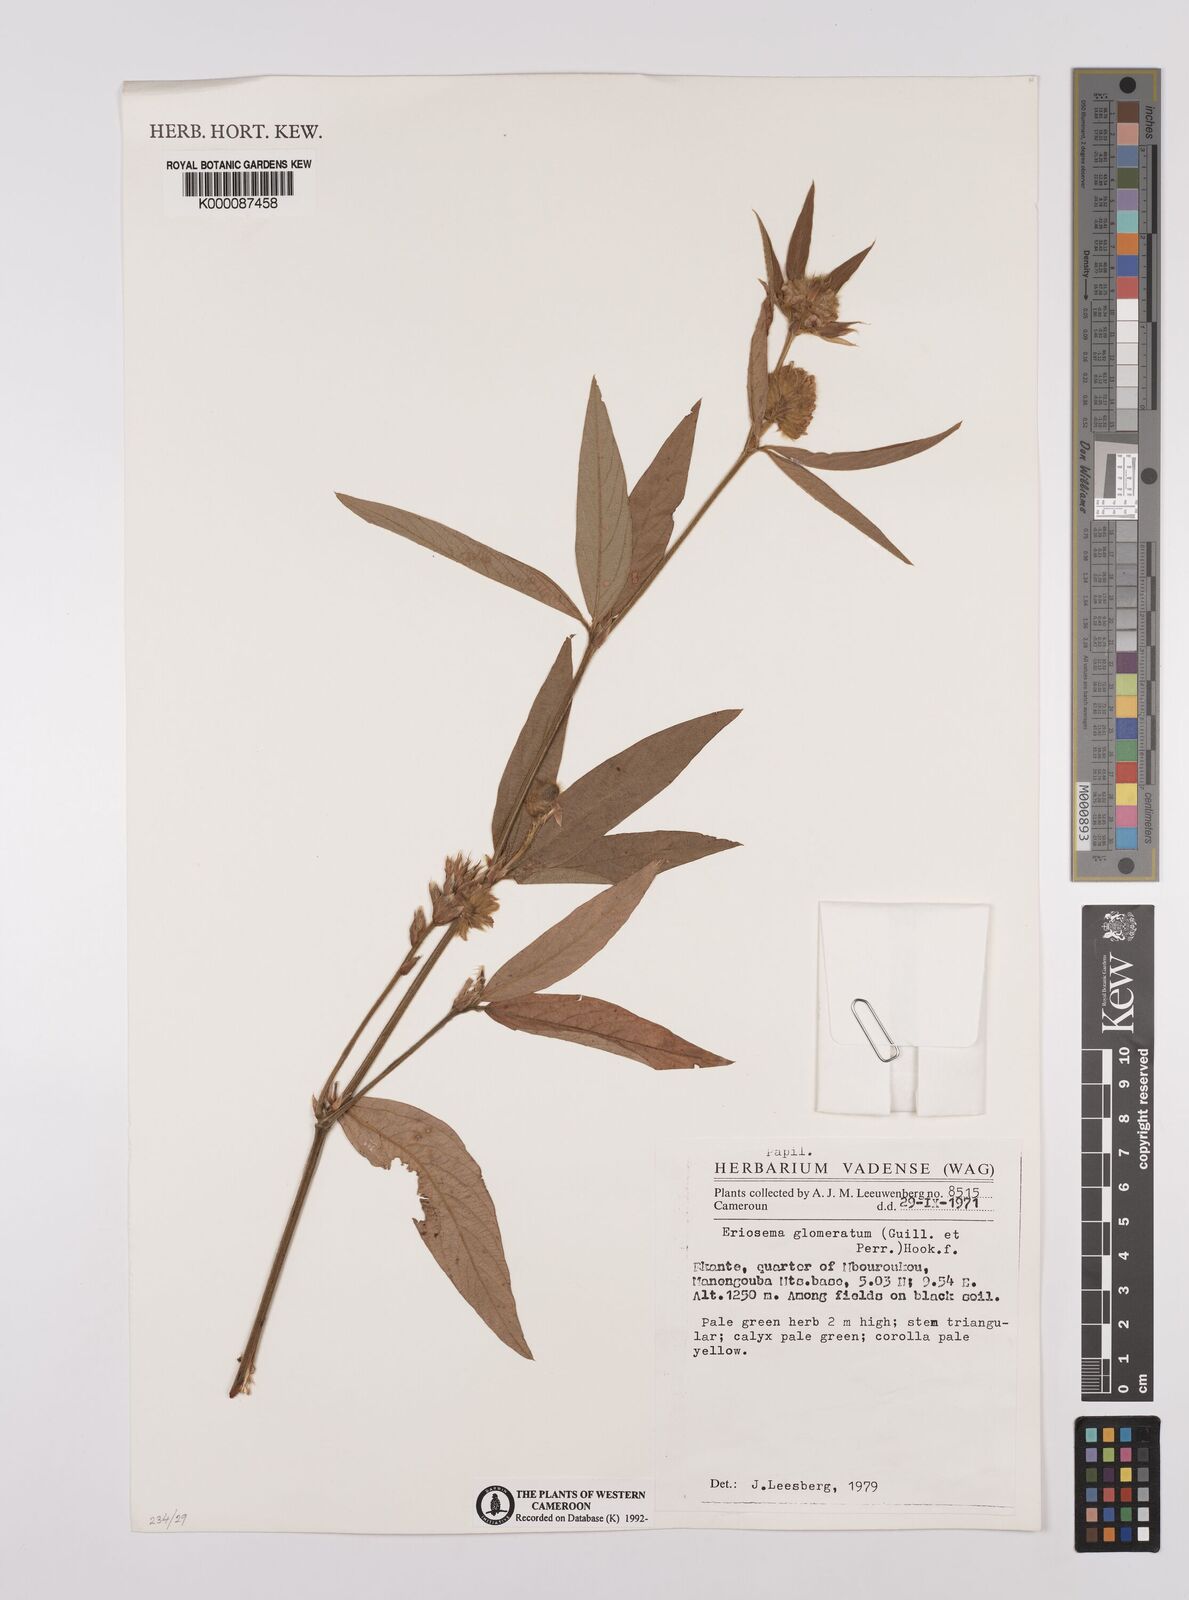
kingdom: Plantae
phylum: Tracheophyta
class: Magnoliopsida
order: Fabales
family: Fabaceae
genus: Eriosema
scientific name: Eriosema glomeratum
